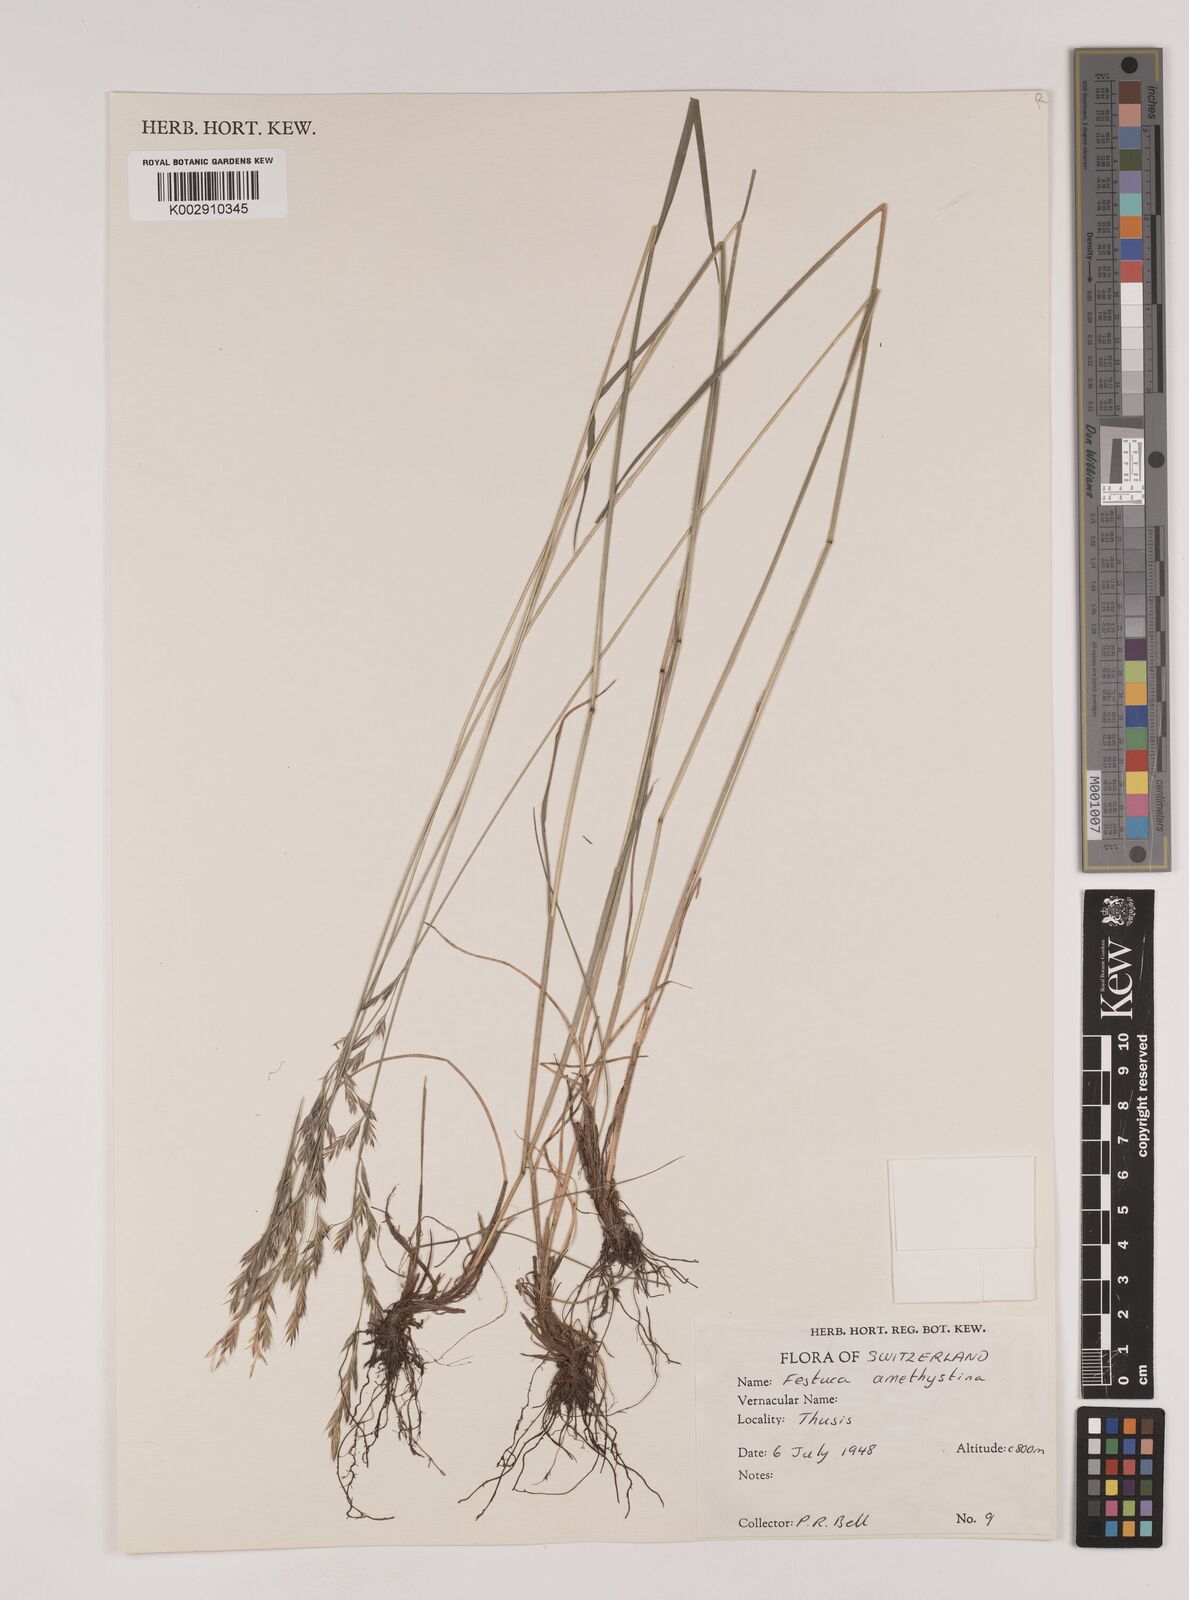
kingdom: Plantae
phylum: Tracheophyta
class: Liliopsida
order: Poales
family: Poaceae
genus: Festuca
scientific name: Festuca amethystina
